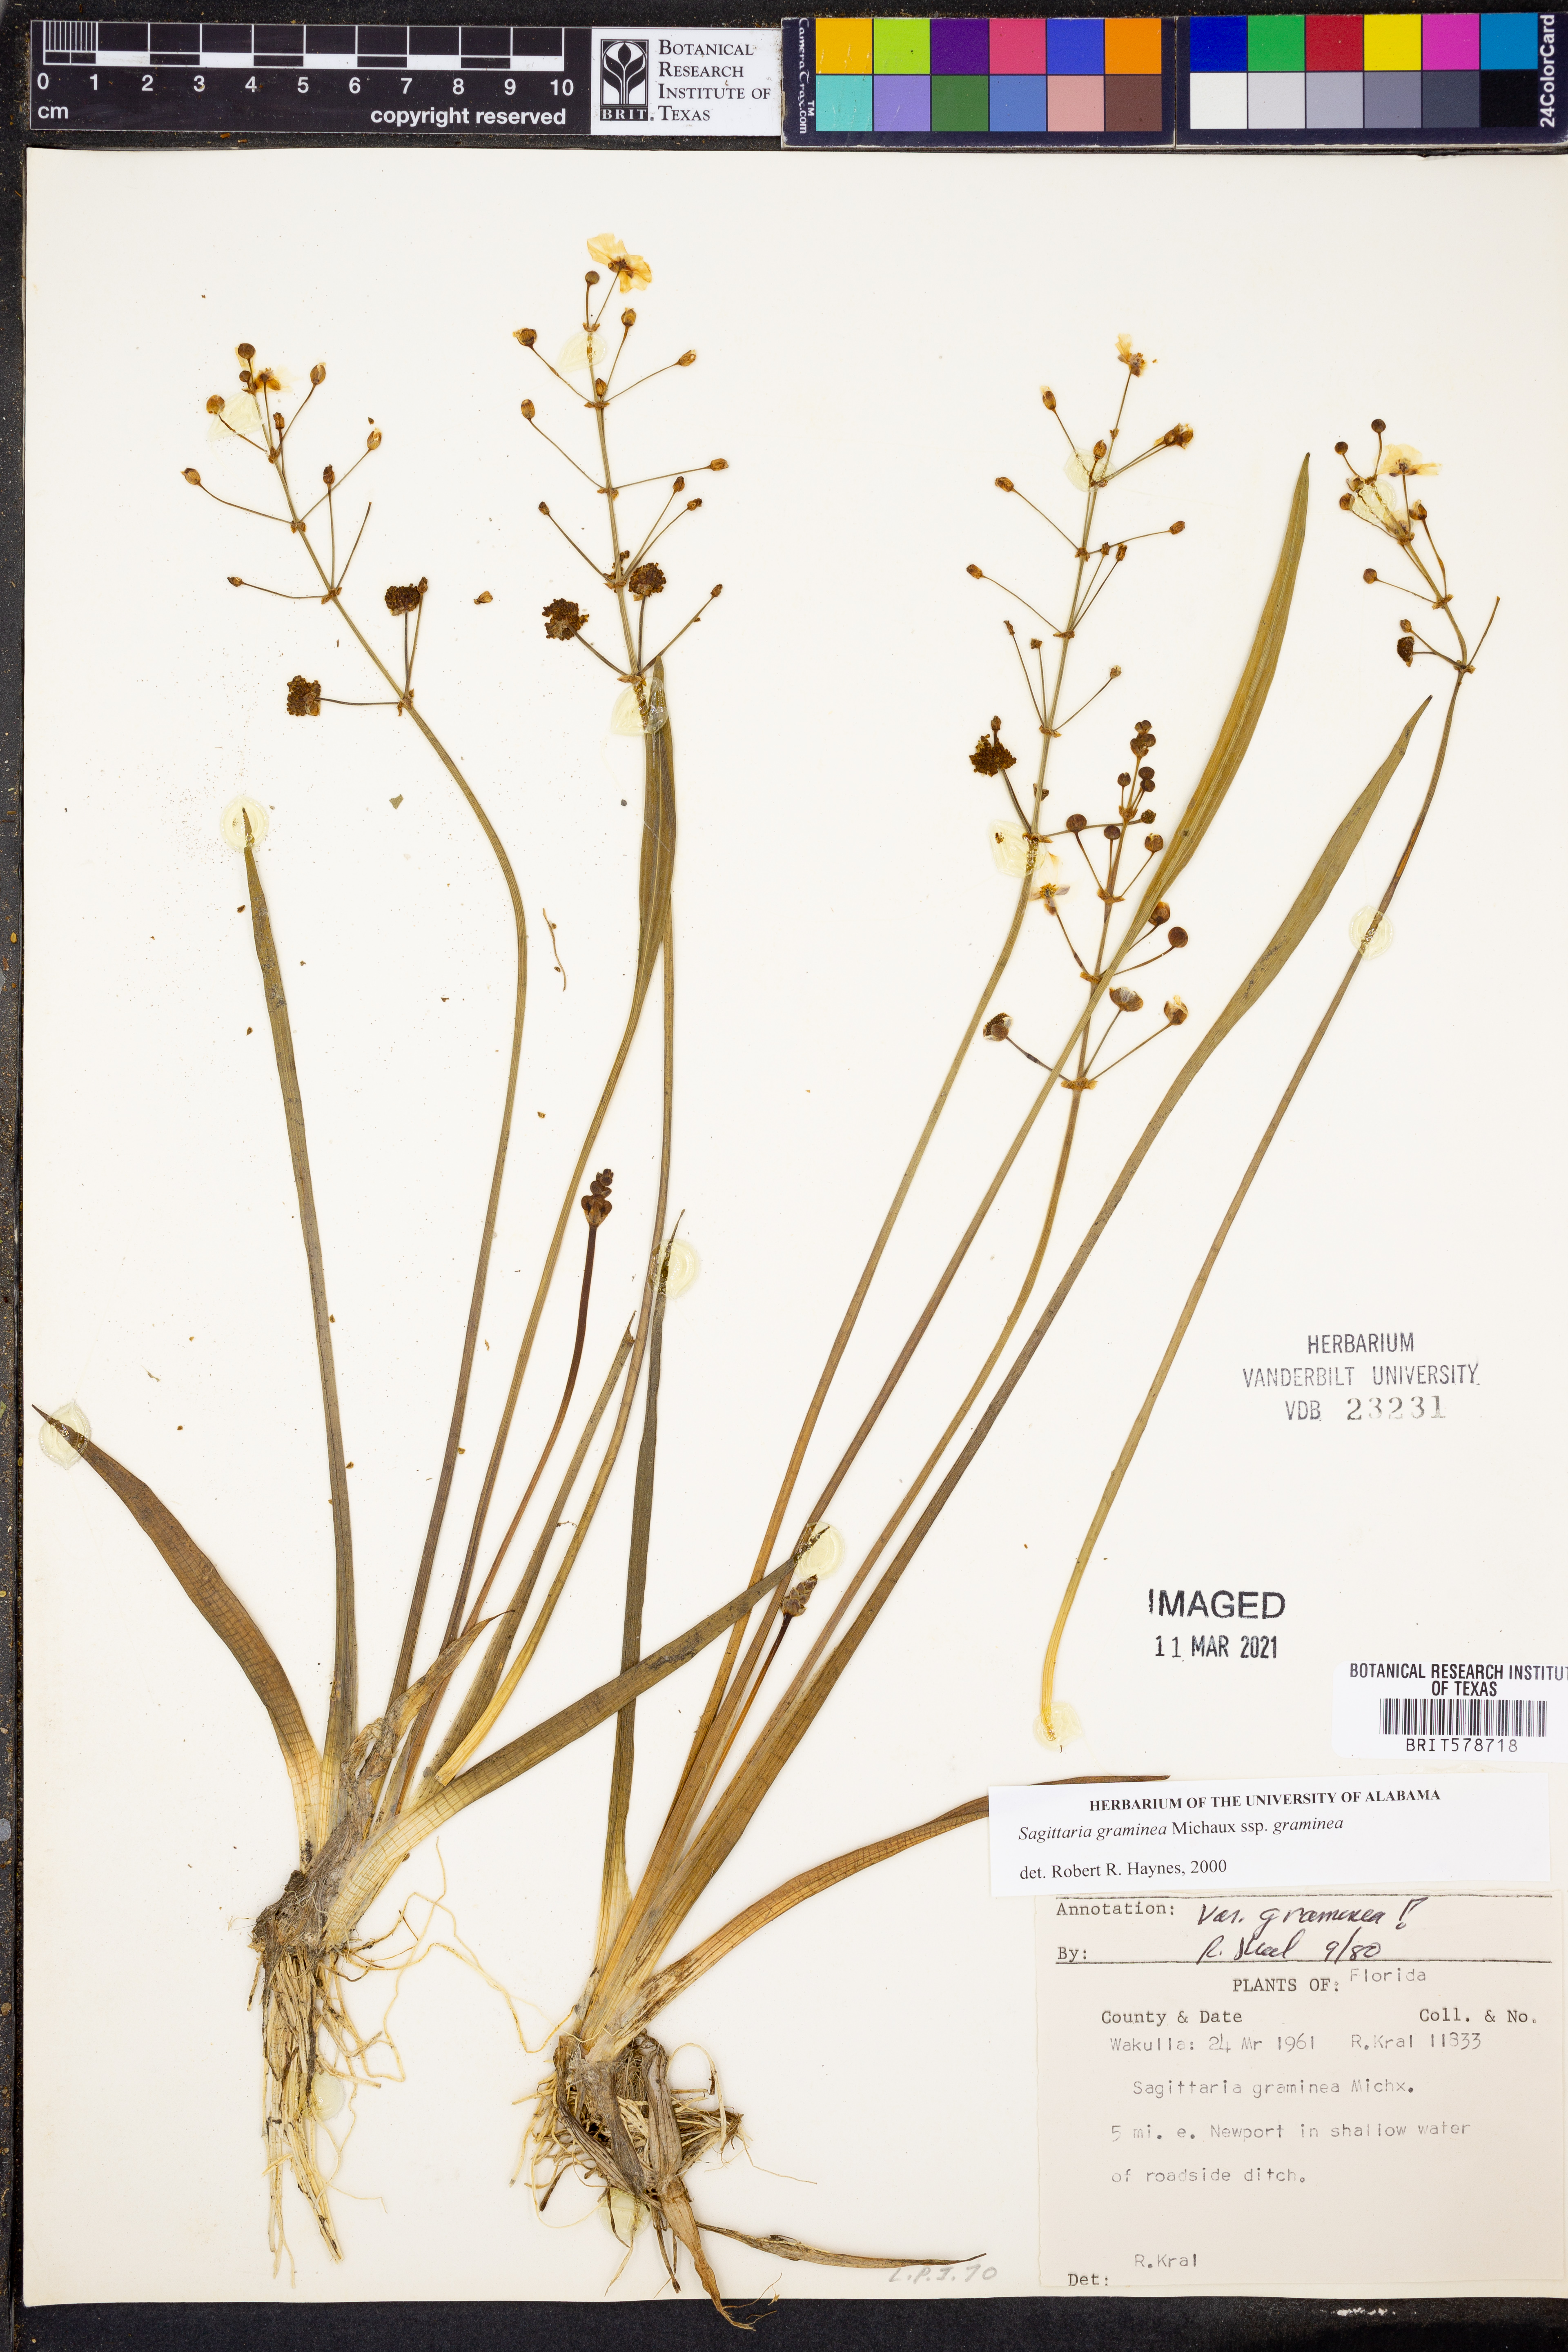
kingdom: Plantae
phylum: Tracheophyta
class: Liliopsida
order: Alismatales
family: Alismataceae
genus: Sagittaria
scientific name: Sagittaria graminea
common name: Grass-leaved arrowhead
